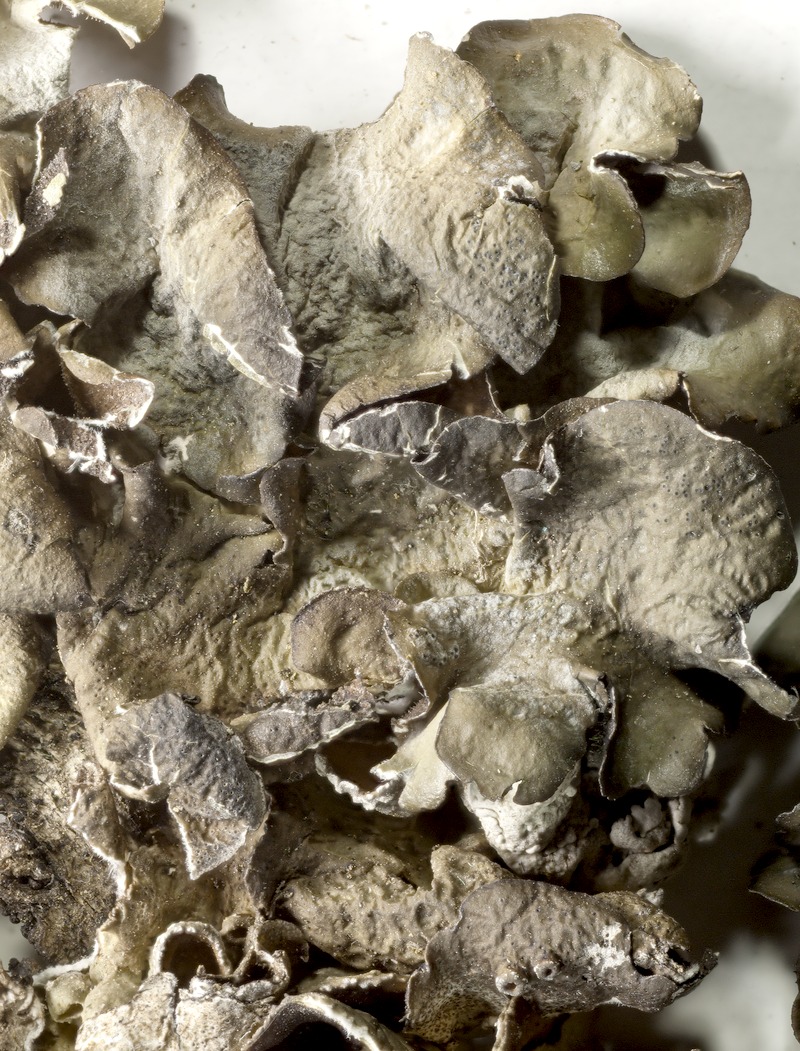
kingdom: Fungi
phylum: Ascomycota
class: Lecanoromycetes
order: Lecanorales
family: Parmeliaceae
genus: Pleurosticta
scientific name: Pleurosticta acetabulum
